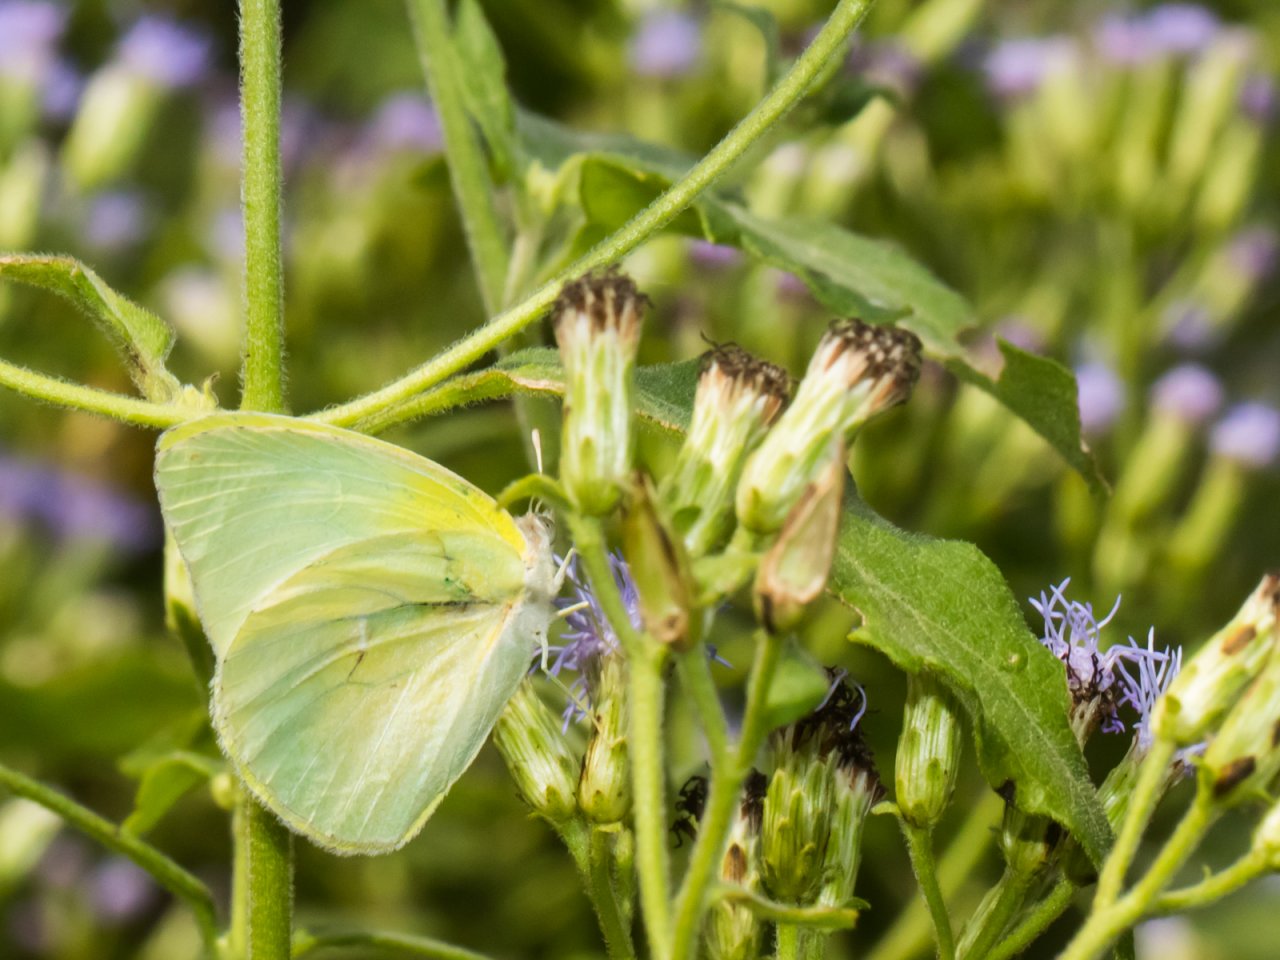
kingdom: Animalia
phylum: Arthropoda
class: Insecta
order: Lepidoptera
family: Pieridae
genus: Kricogonia
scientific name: Kricogonia lyside
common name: Lyside Sulphur
